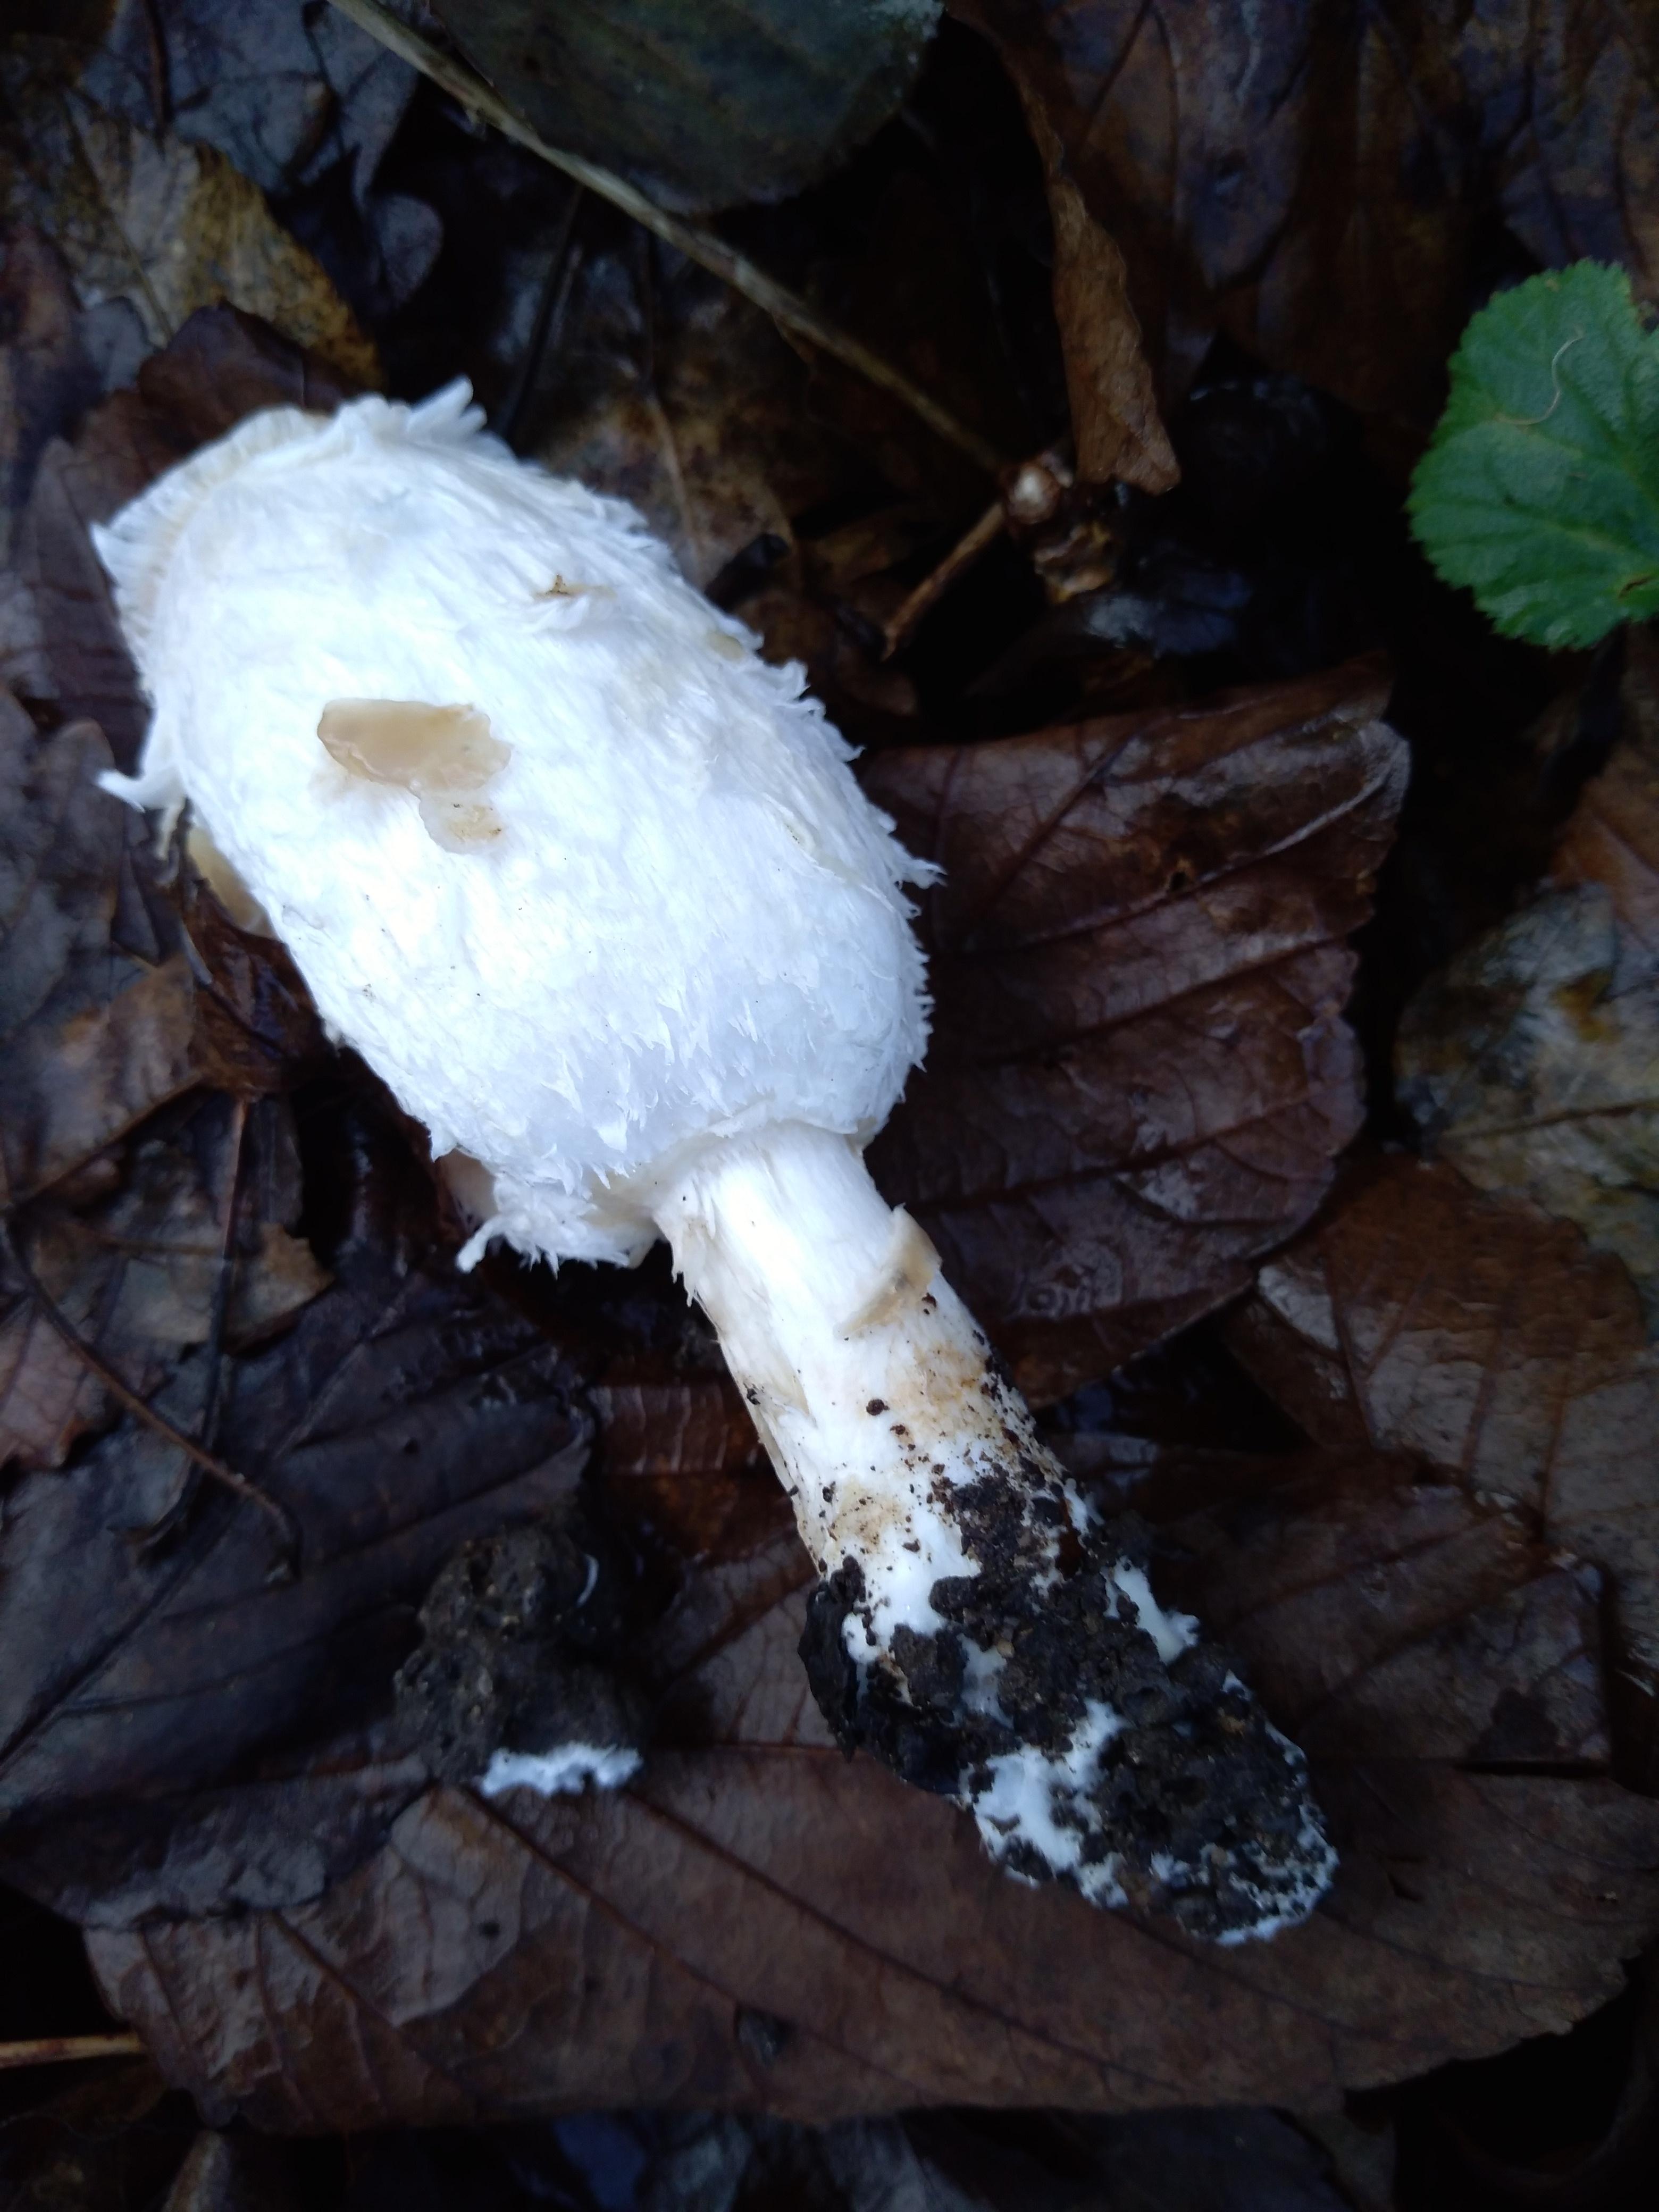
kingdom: Fungi
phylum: Basidiomycota
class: Agaricomycetes
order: Agaricales
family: Agaricaceae
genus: Coprinus
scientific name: Coprinus comatus
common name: stor parykhat
